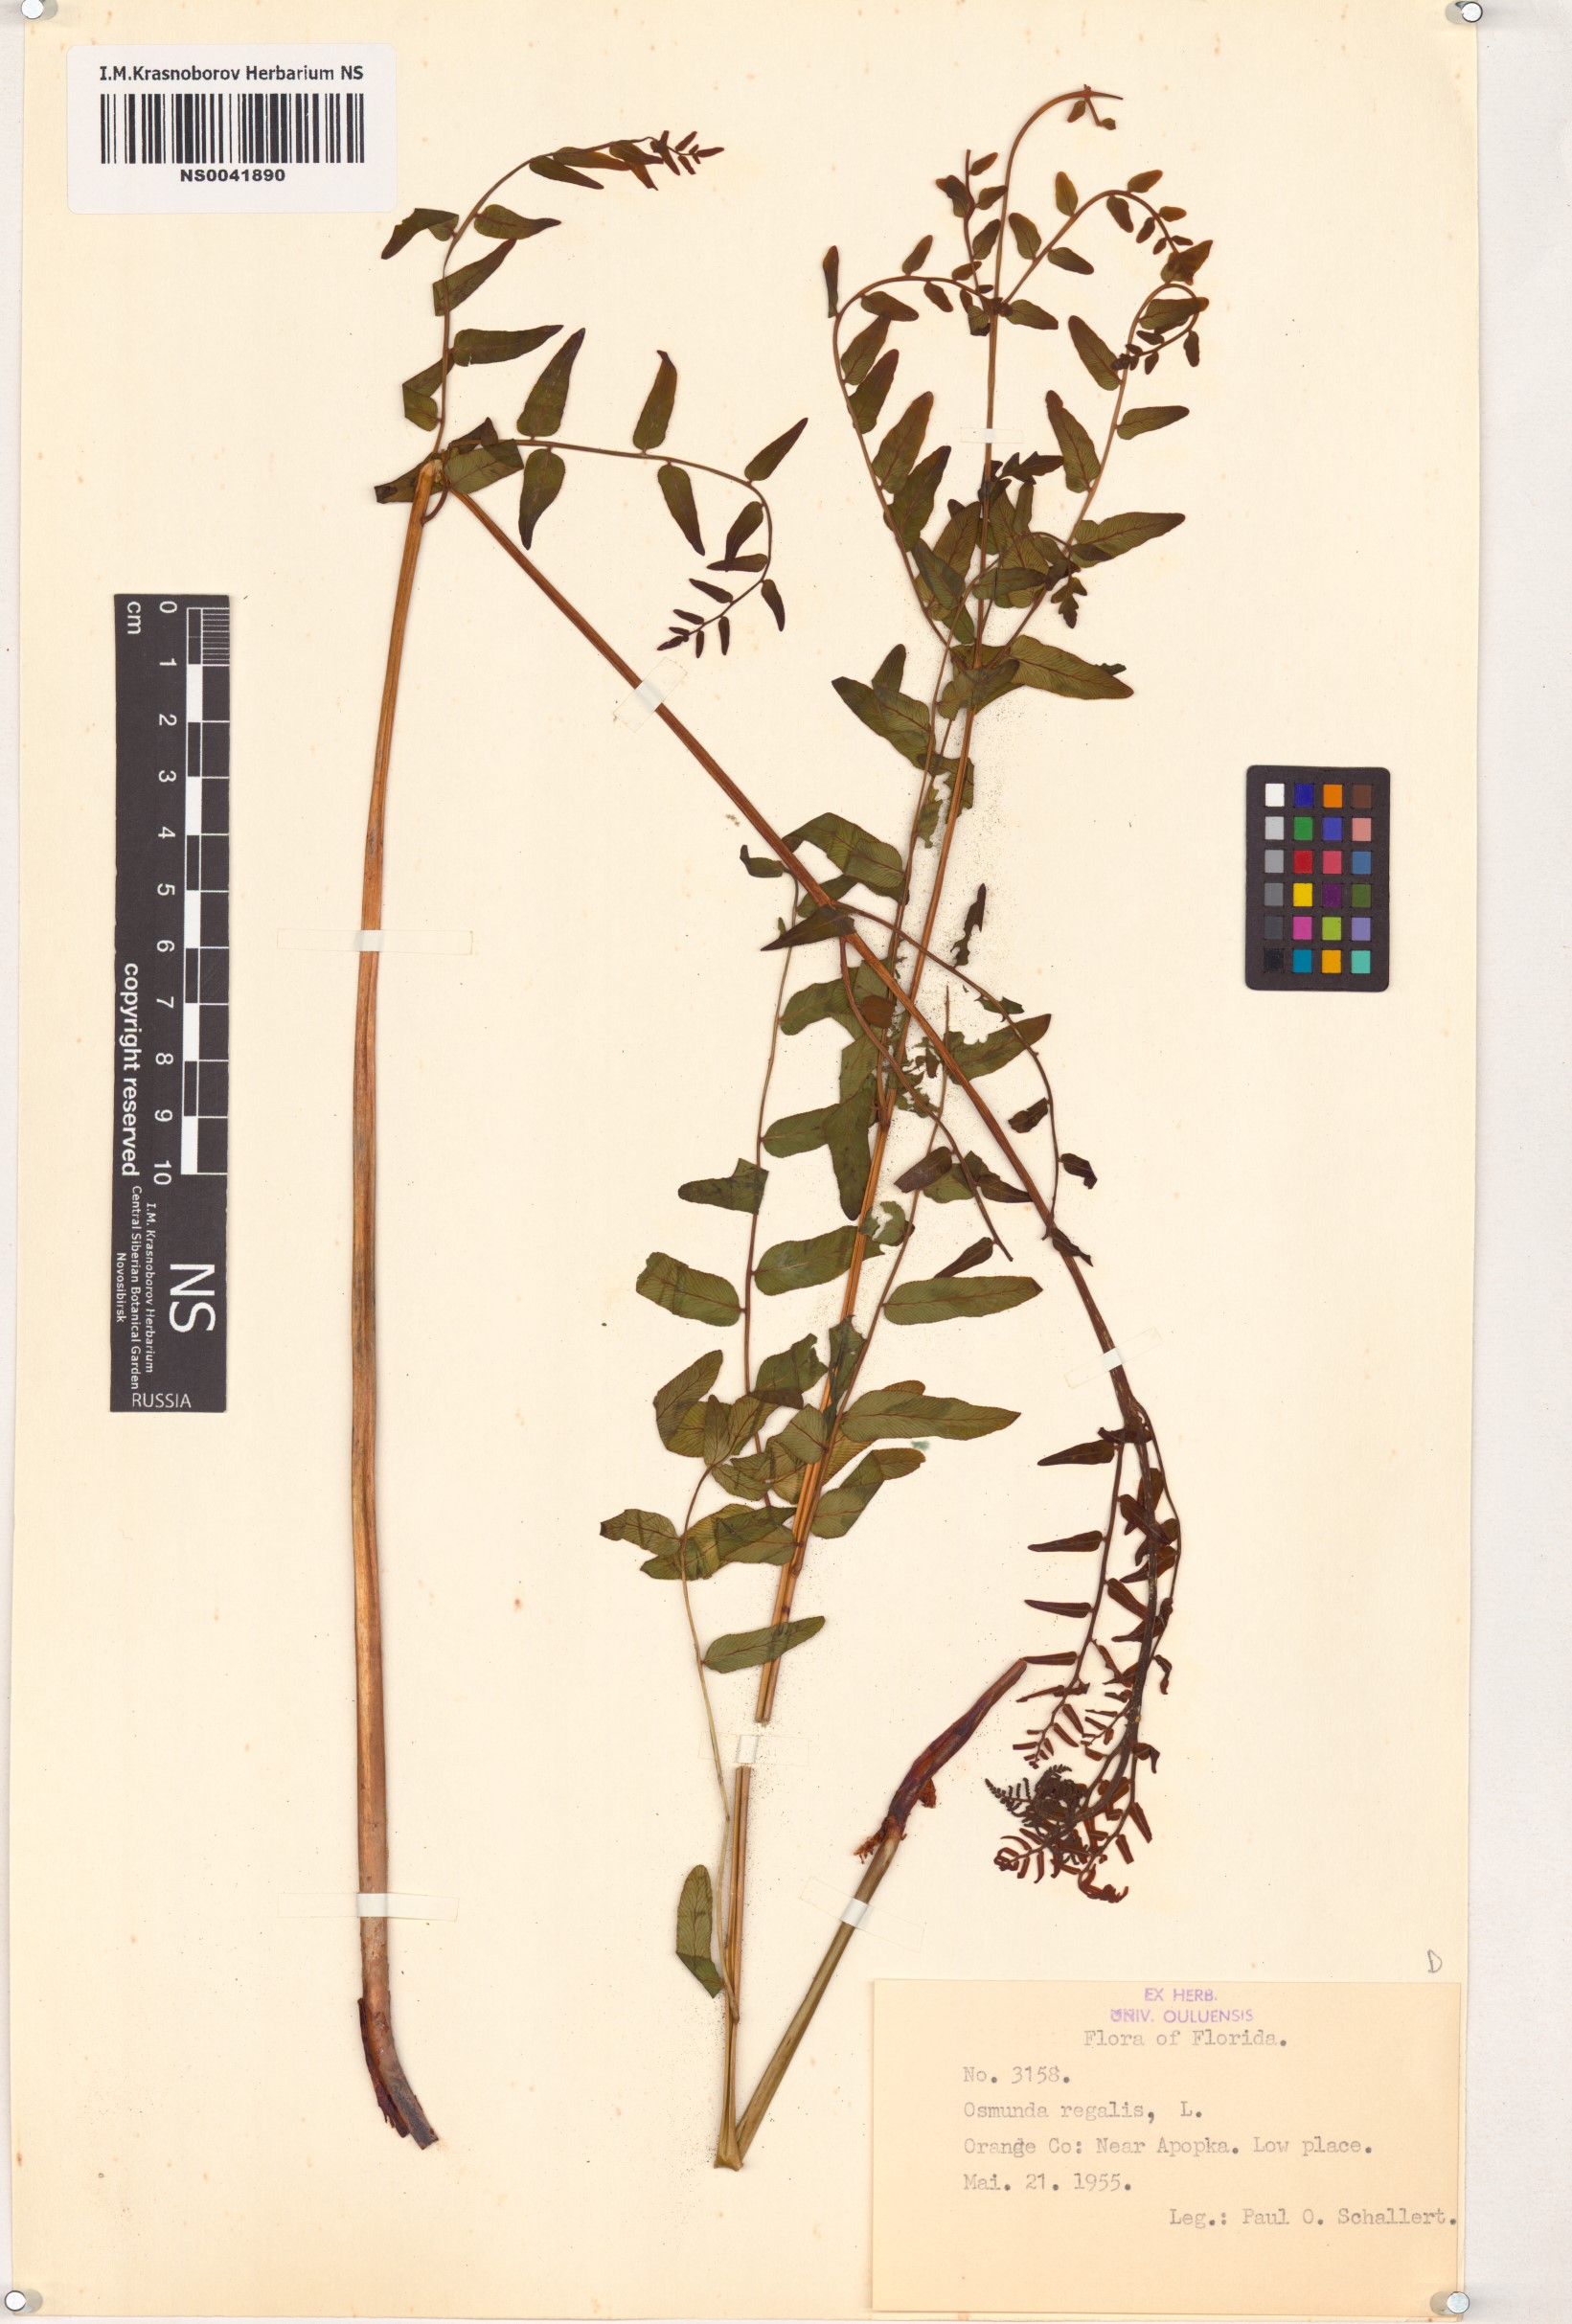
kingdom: Plantae
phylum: Tracheophyta
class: Polypodiopsida
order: Osmundales
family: Osmundaceae
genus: Osmunda
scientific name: Osmunda regalis
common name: Royal fern
